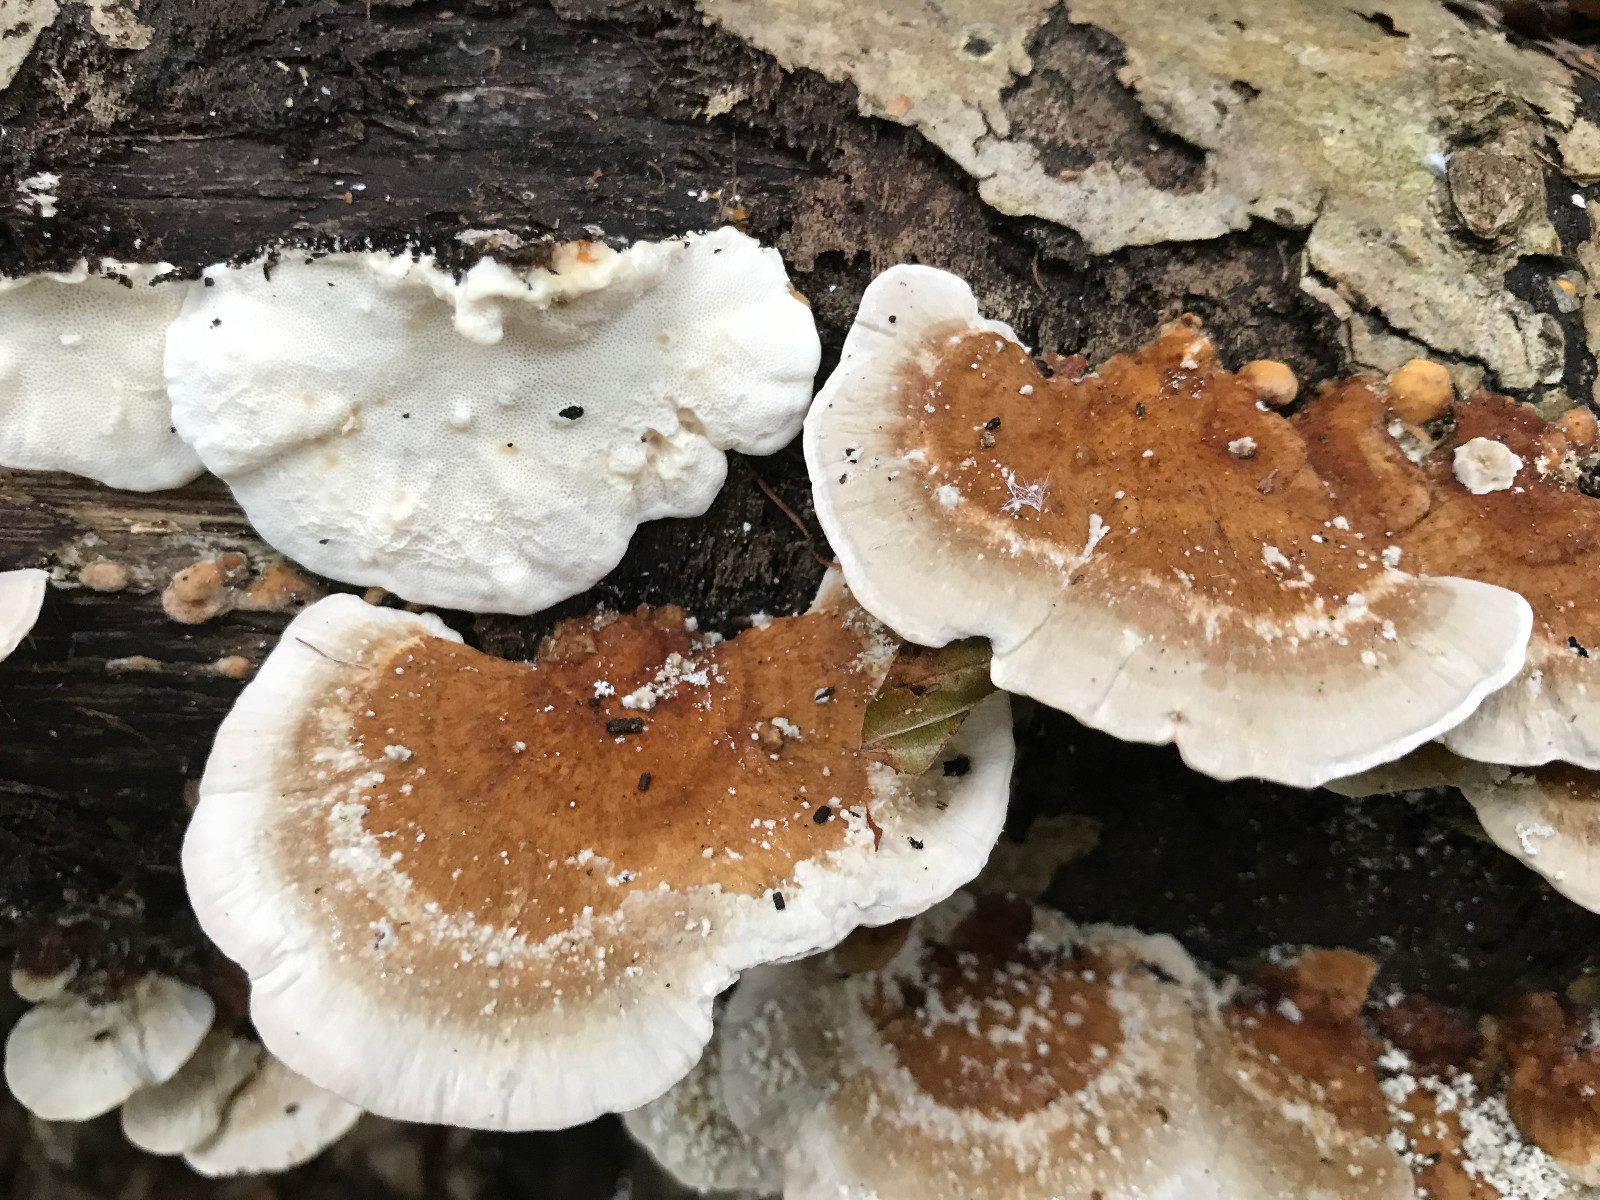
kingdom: Fungi
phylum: Basidiomycota
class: Agaricomycetes
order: Polyporales
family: Polyporaceae
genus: Trametes
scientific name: Trametes ochracea
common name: bæltet læderporesvamp
